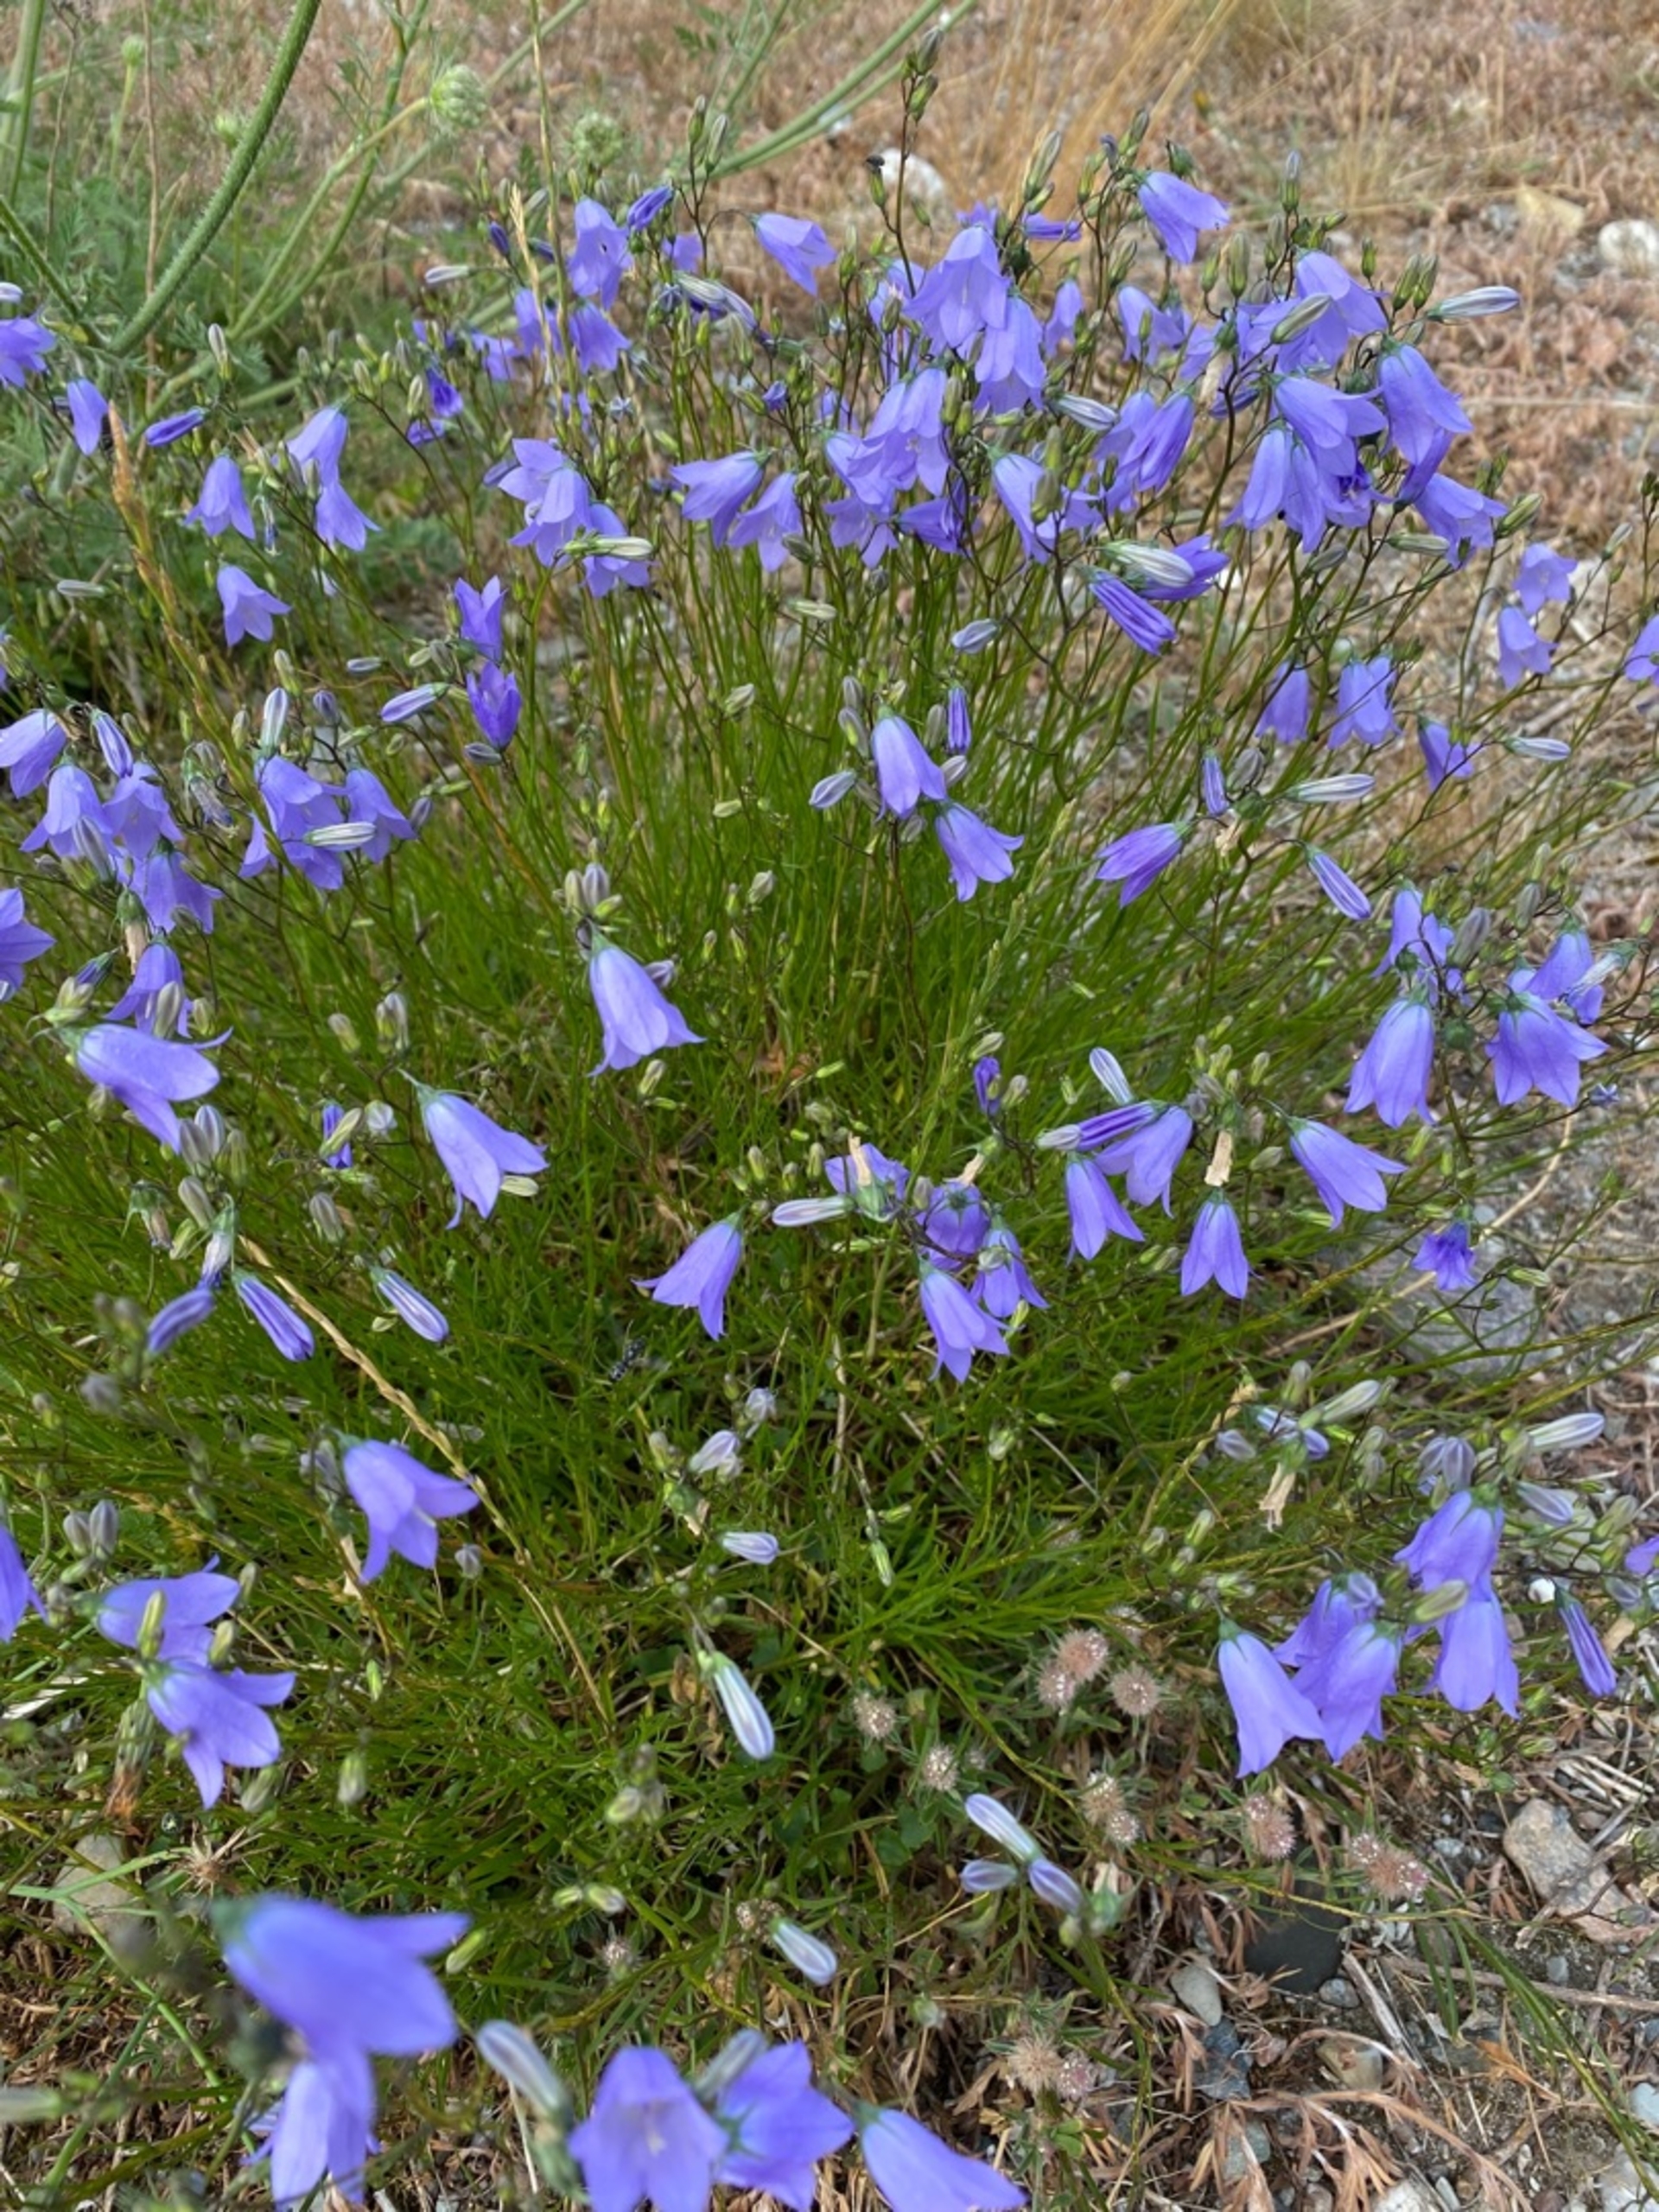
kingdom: Plantae
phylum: Tracheophyta
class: Magnoliopsida
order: Asterales
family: Campanulaceae
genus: Campanula
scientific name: Campanula rotundifolia
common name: Liden klokke
